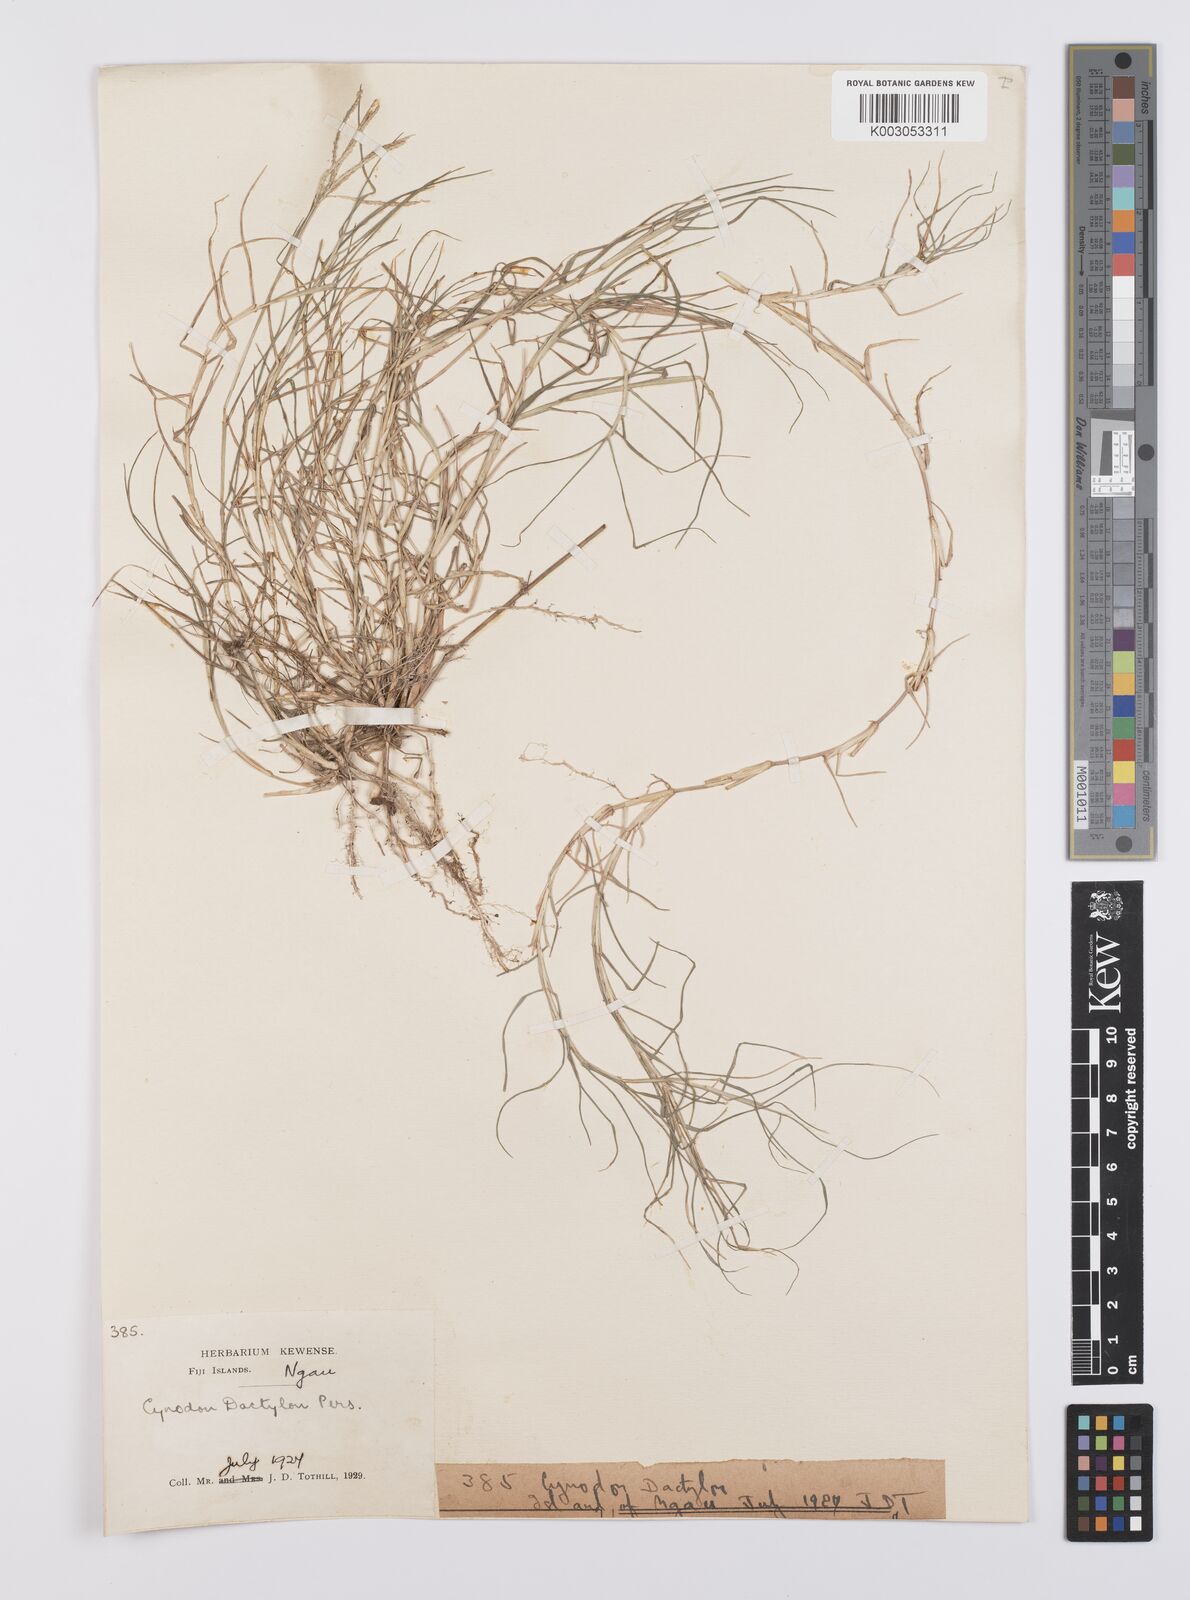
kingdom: Plantae
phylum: Tracheophyta
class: Liliopsida
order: Poales
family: Poaceae
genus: Cynodon
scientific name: Cynodon dactylon
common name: Bermuda grass
